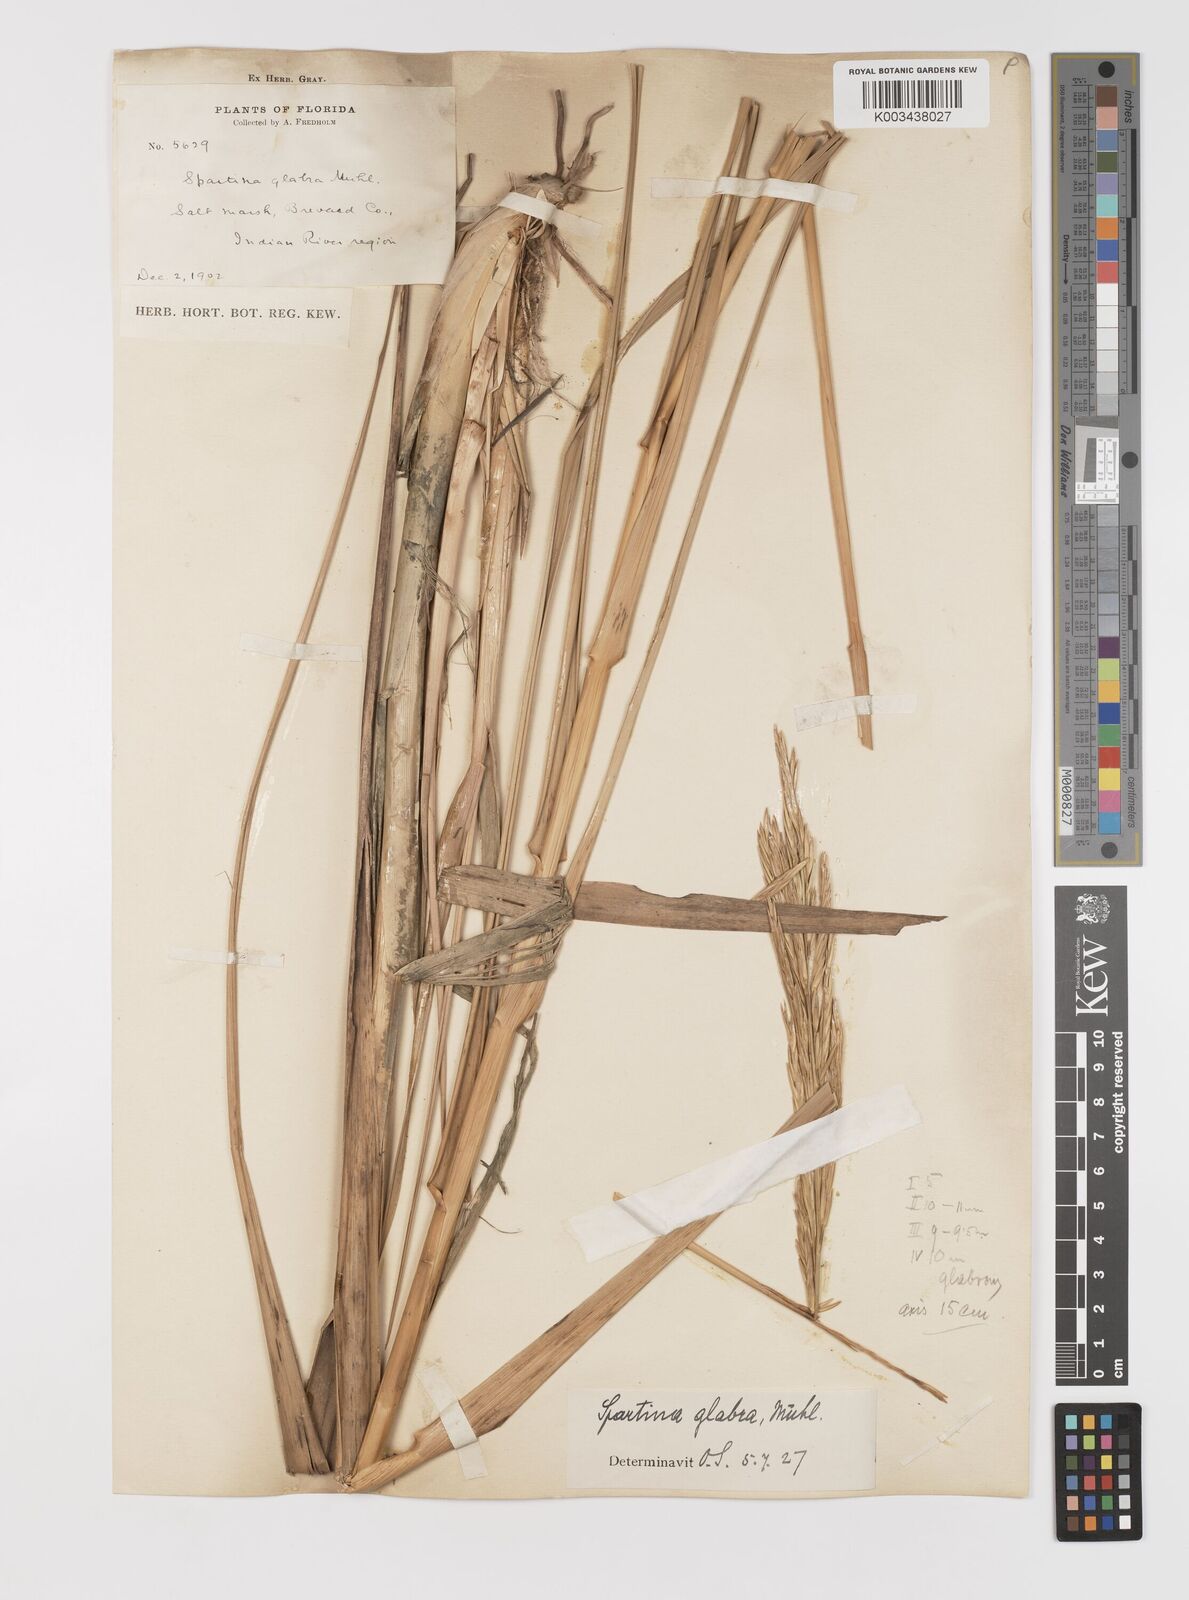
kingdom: Plantae
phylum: Tracheophyta
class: Liliopsida
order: Poales
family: Poaceae
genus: Sporobolus
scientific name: Sporobolus alterniflorus
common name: Atlantic cordgrass
